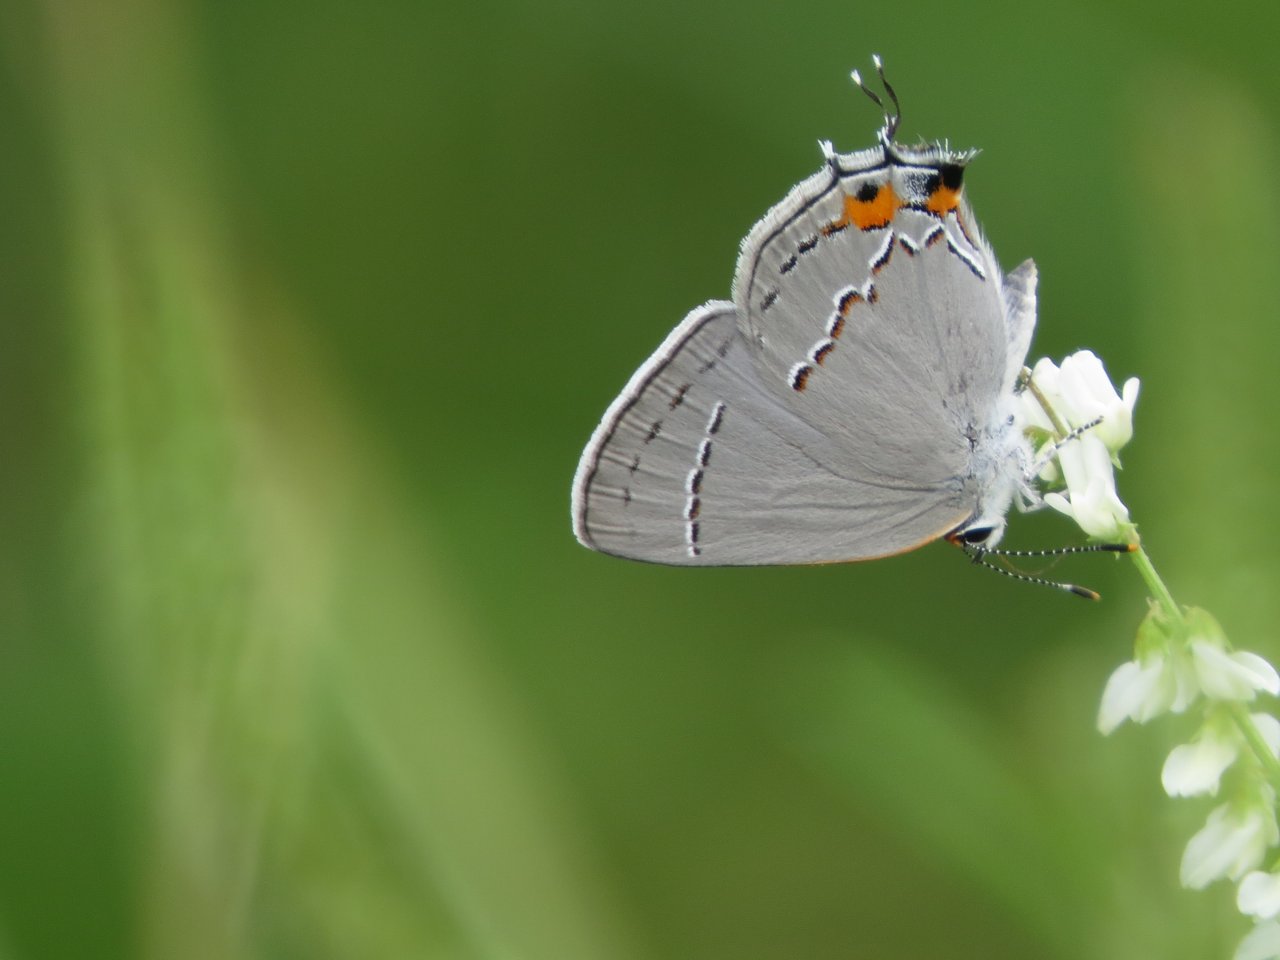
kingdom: Animalia
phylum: Arthropoda
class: Insecta
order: Lepidoptera
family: Lycaenidae
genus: Strymon
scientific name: Strymon melinus
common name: Gray Hairstreak
